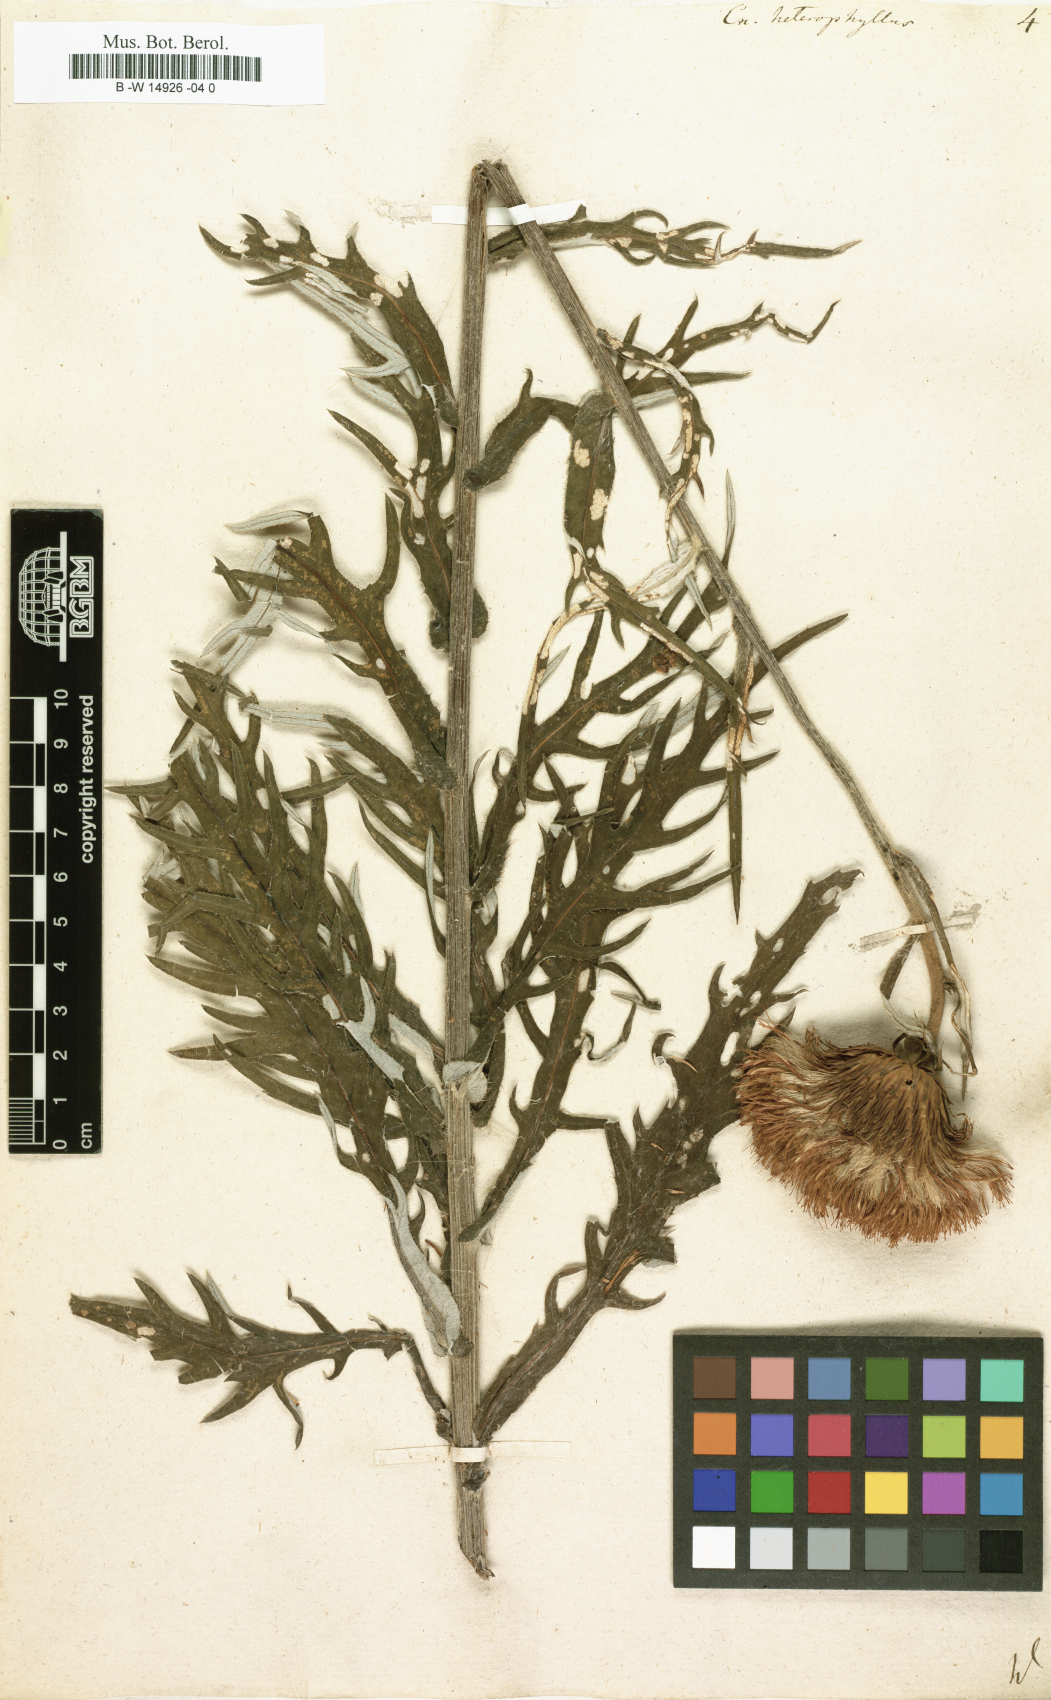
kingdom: Plantae
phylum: Tracheophyta
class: Magnoliopsida
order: Asterales
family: Asteraceae
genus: Cirsium
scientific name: Cirsium heterophyllum
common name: Melancholy thistle
